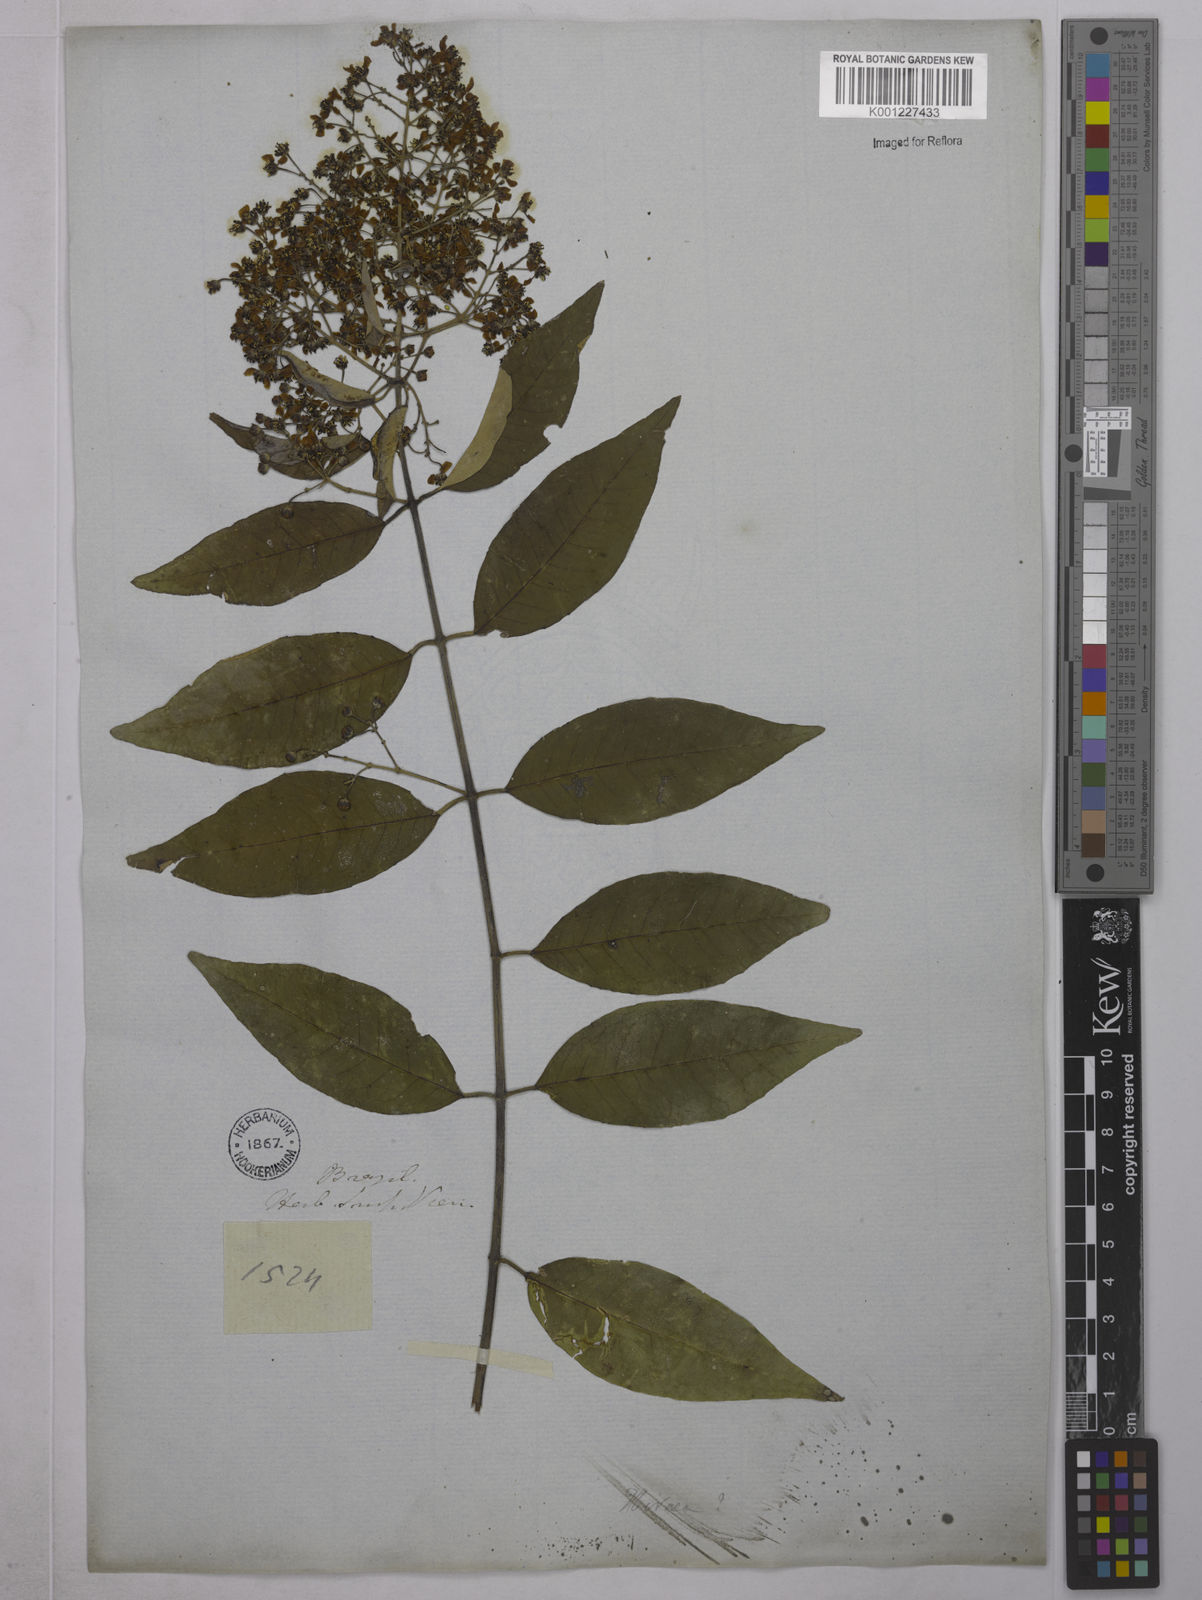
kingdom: Plantae
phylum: Tracheophyta
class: Magnoliopsida
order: Malpighiales
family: Malpighiaceae
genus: Tetrapterys
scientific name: Tetrapterys
